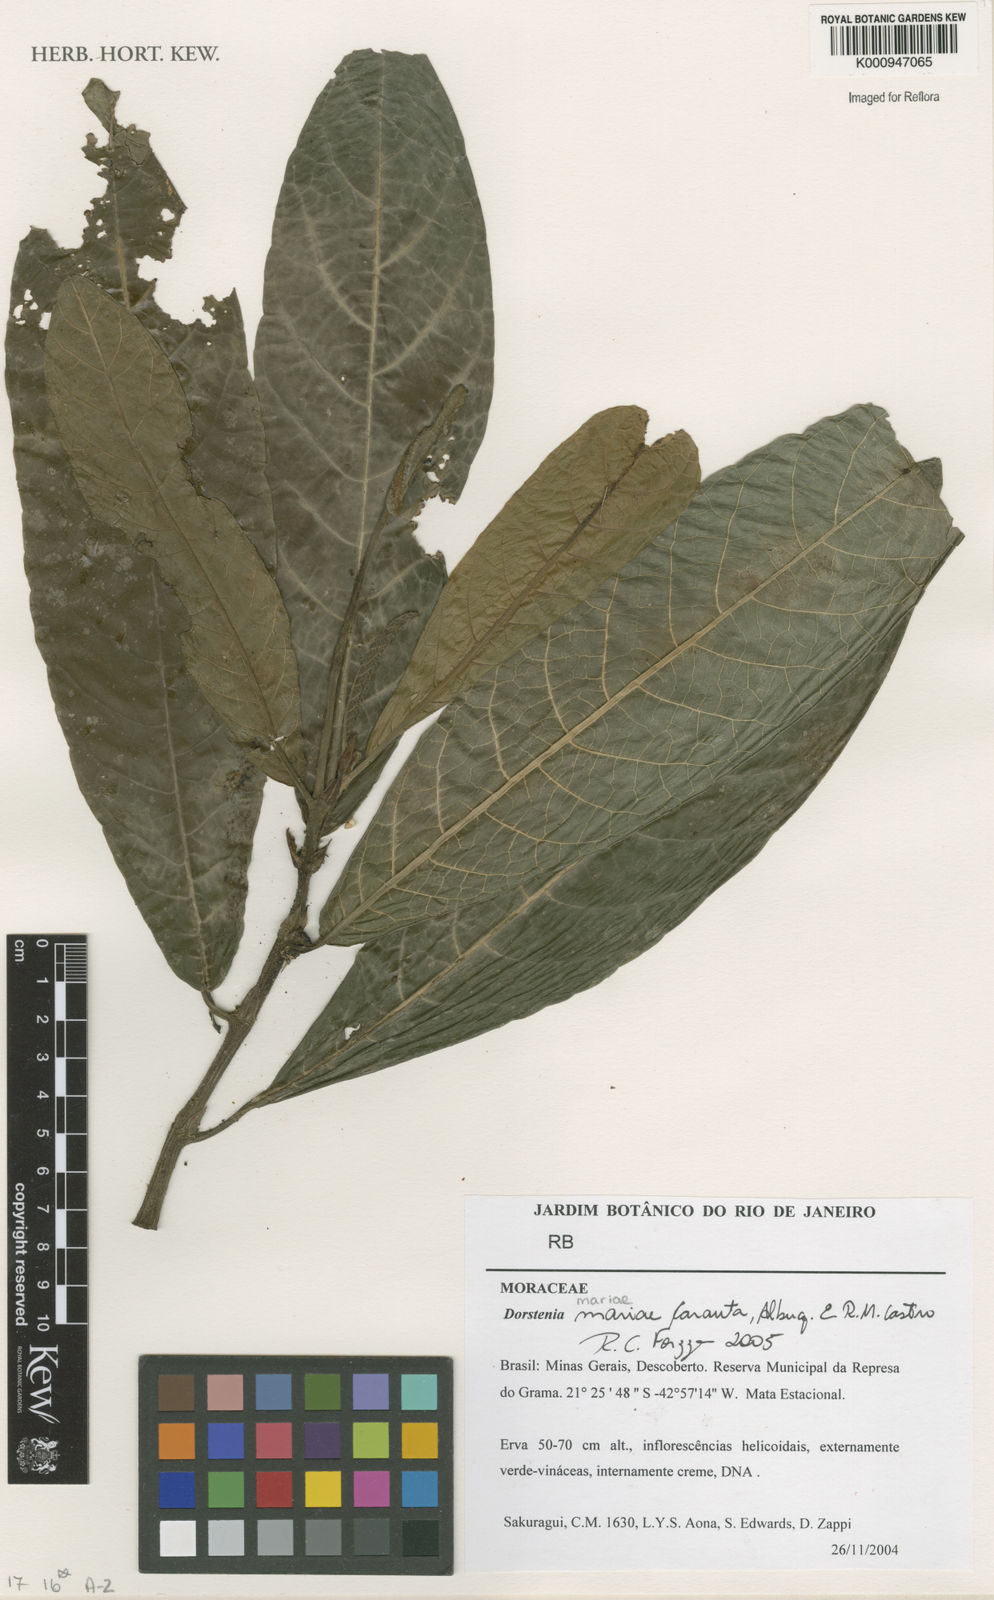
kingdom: Plantae
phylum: Tracheophyta
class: Magnoliopsida
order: Rosales
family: Moraceae
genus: Dorstenia
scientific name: Dorstenia mariae
